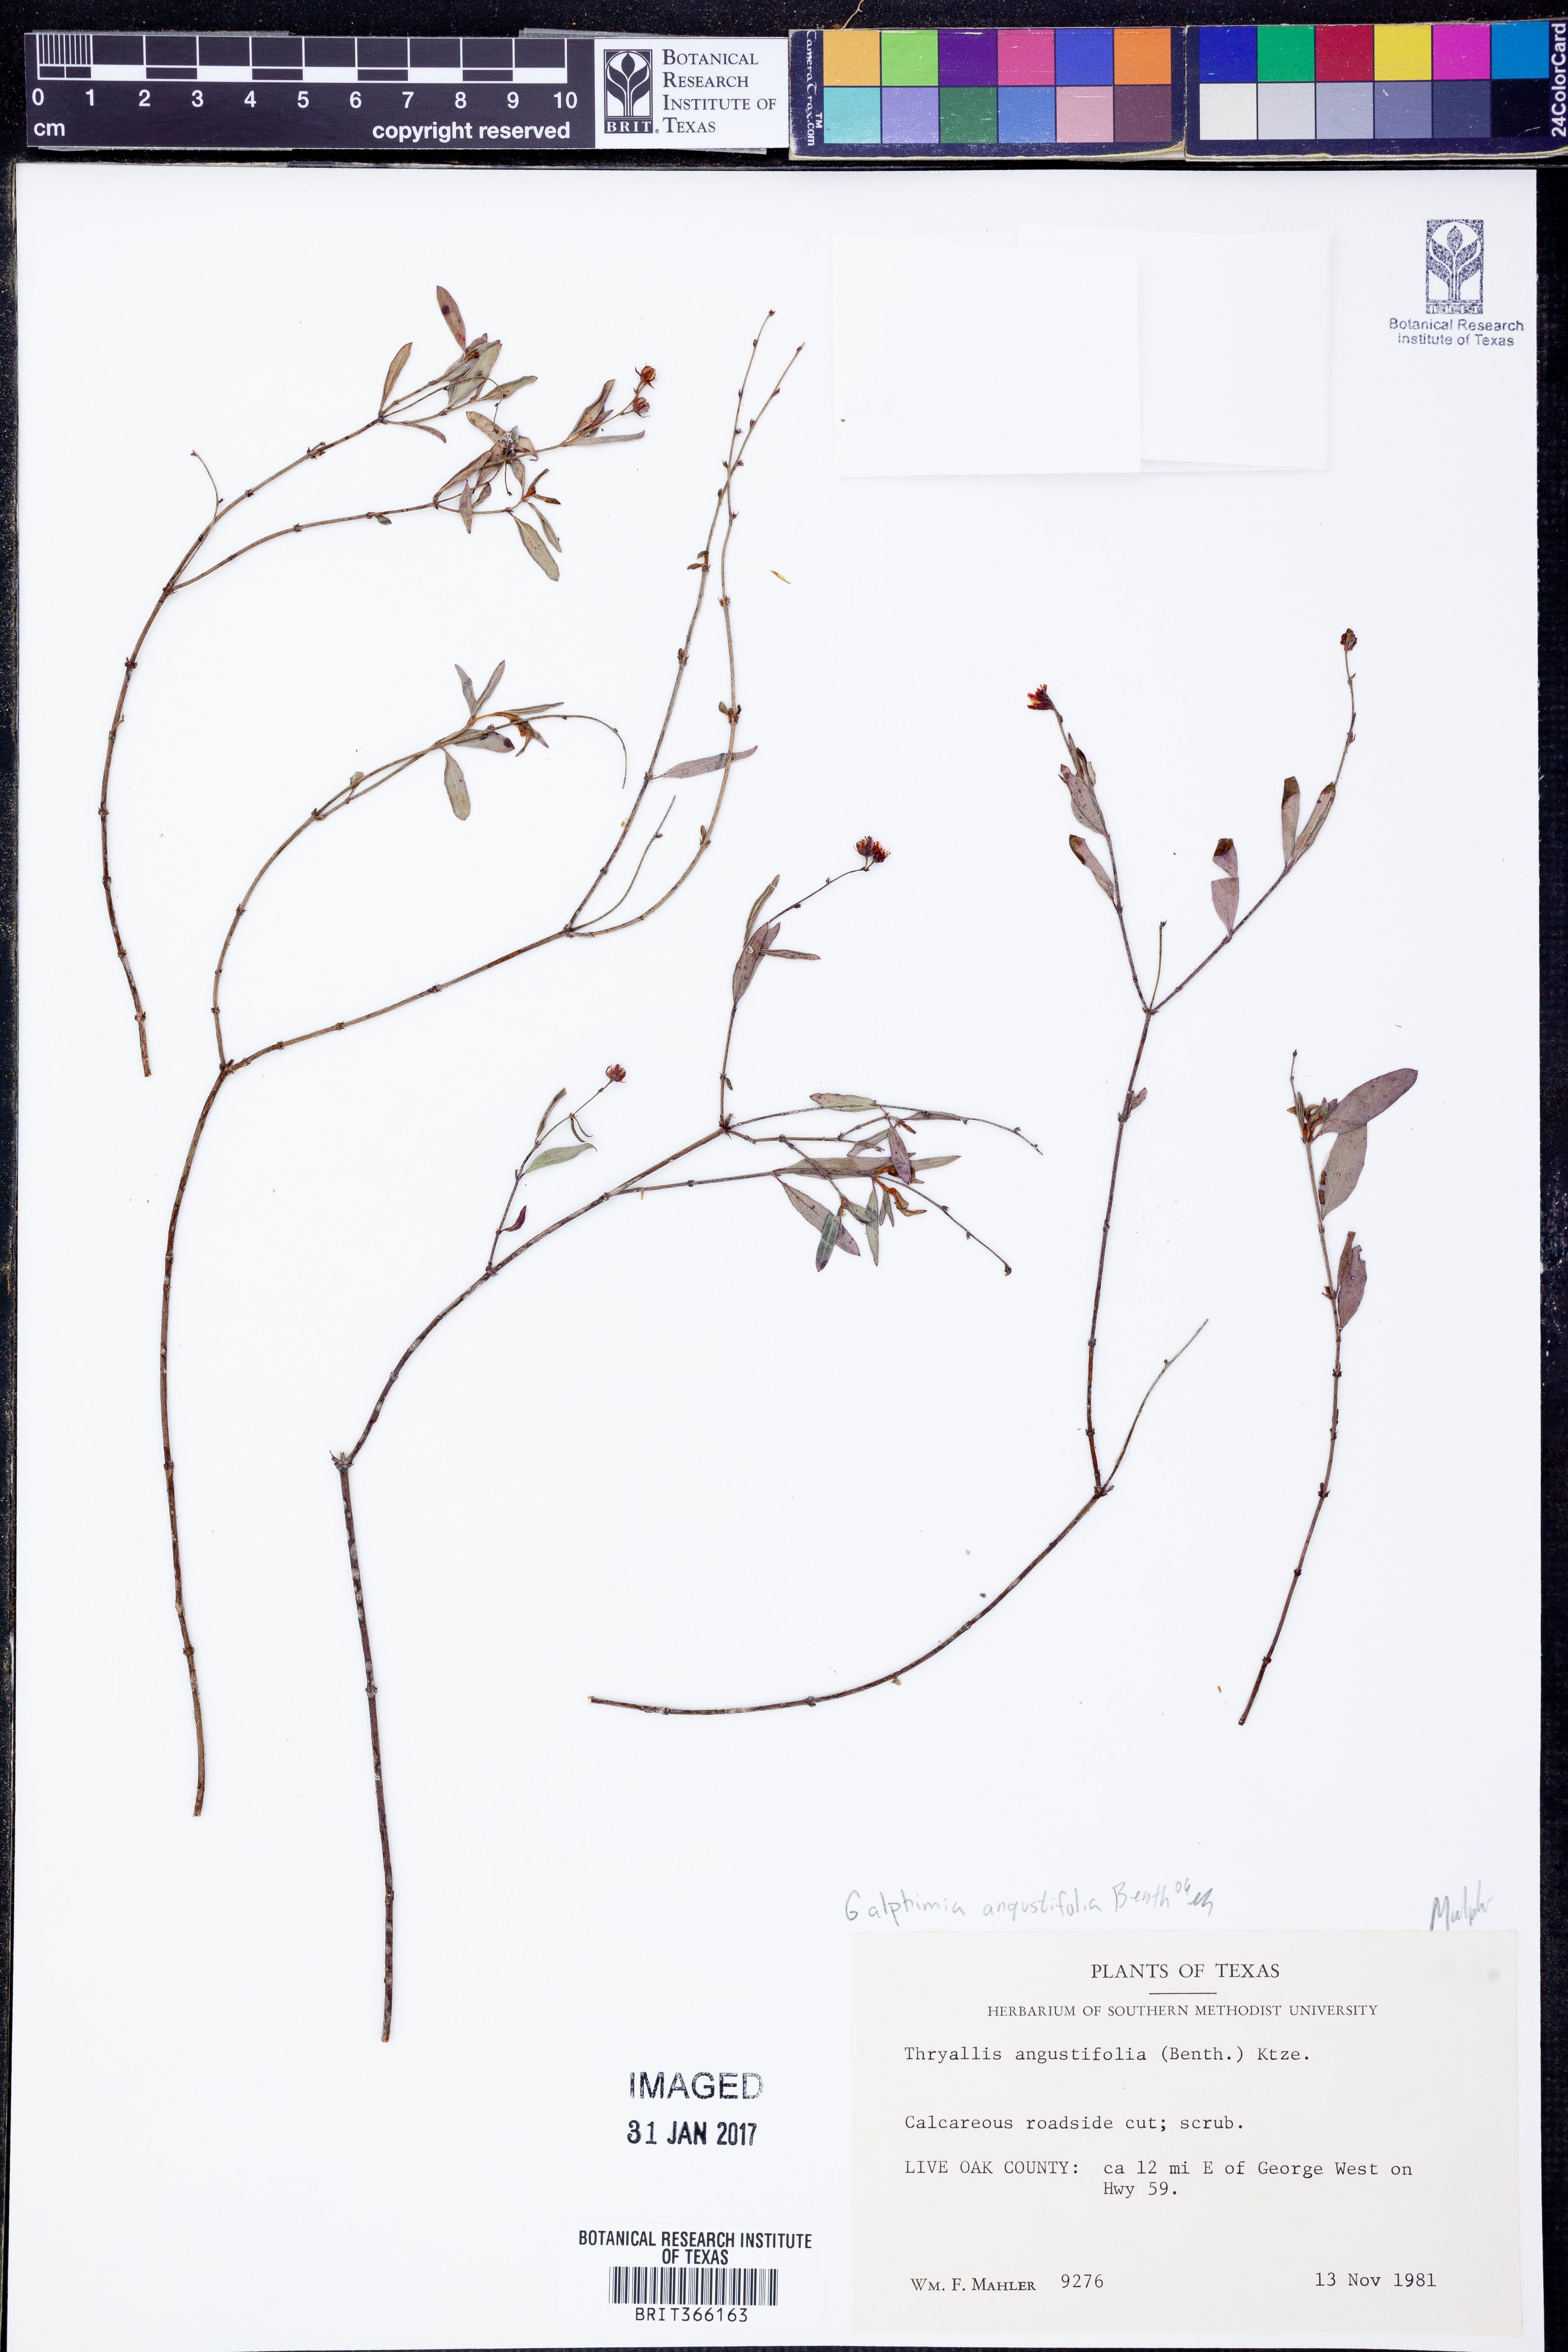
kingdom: Plantae
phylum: Tracheophyta
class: Magnoliopsida
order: Malpighiales
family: Malpighiaceae
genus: Galphimia
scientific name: Galphimia angustifolia
